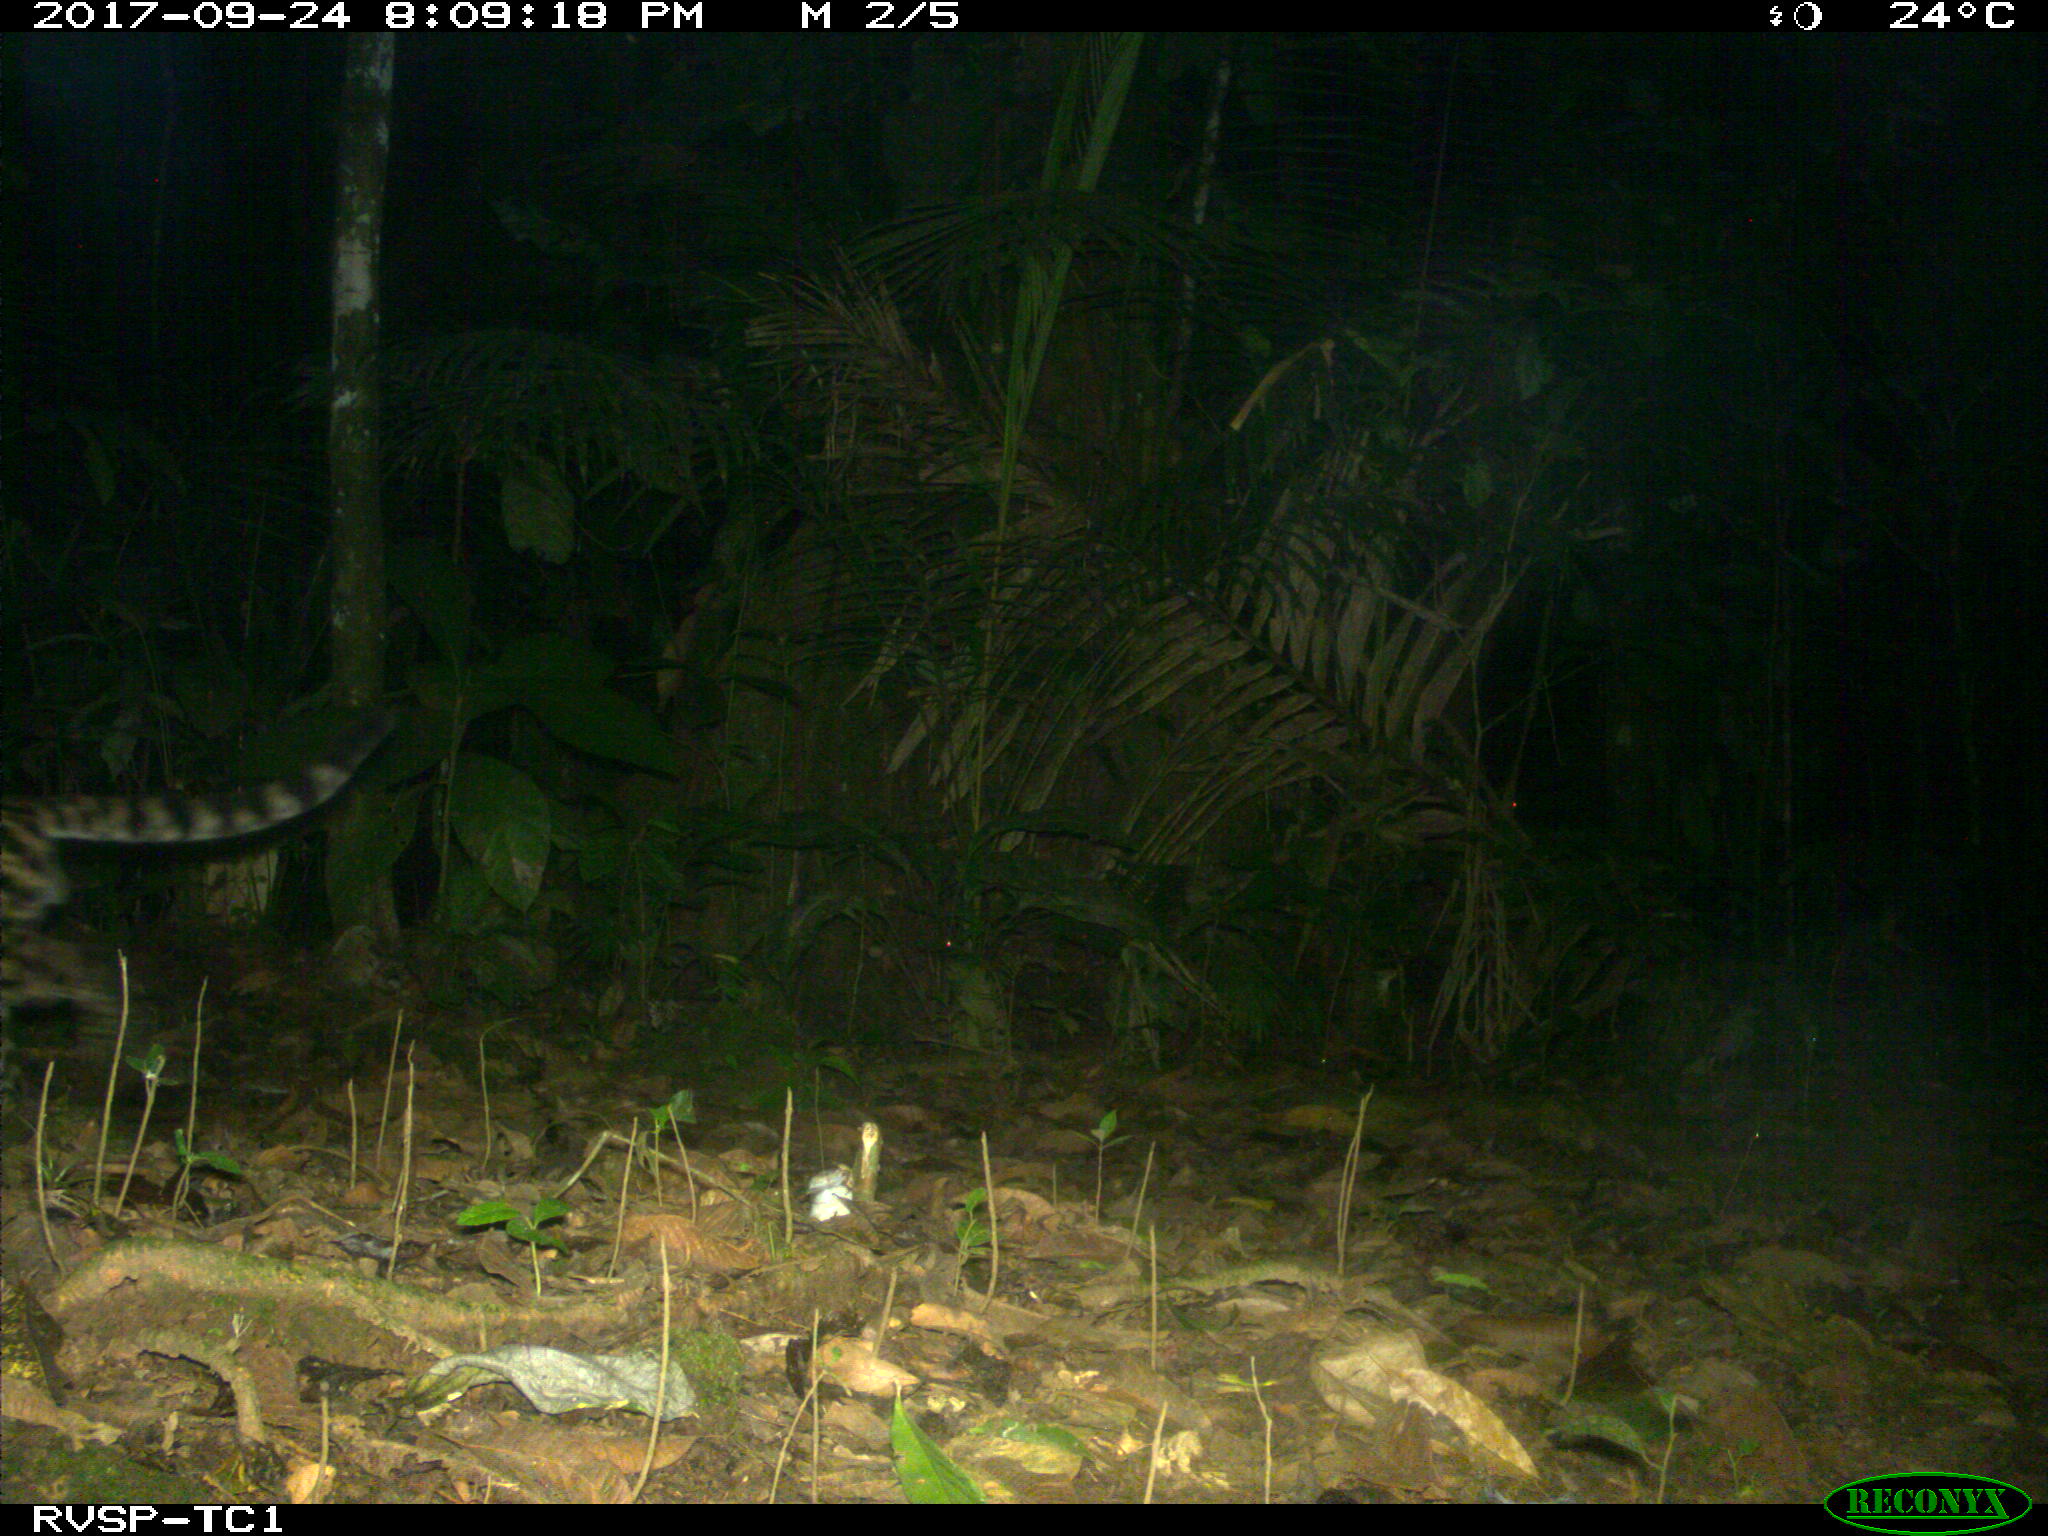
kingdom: Animalia
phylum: Chordata
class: Mammalia
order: Carnivora
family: Felidae
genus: Leopardus
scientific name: Leopardus pardalis
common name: Ocelot
